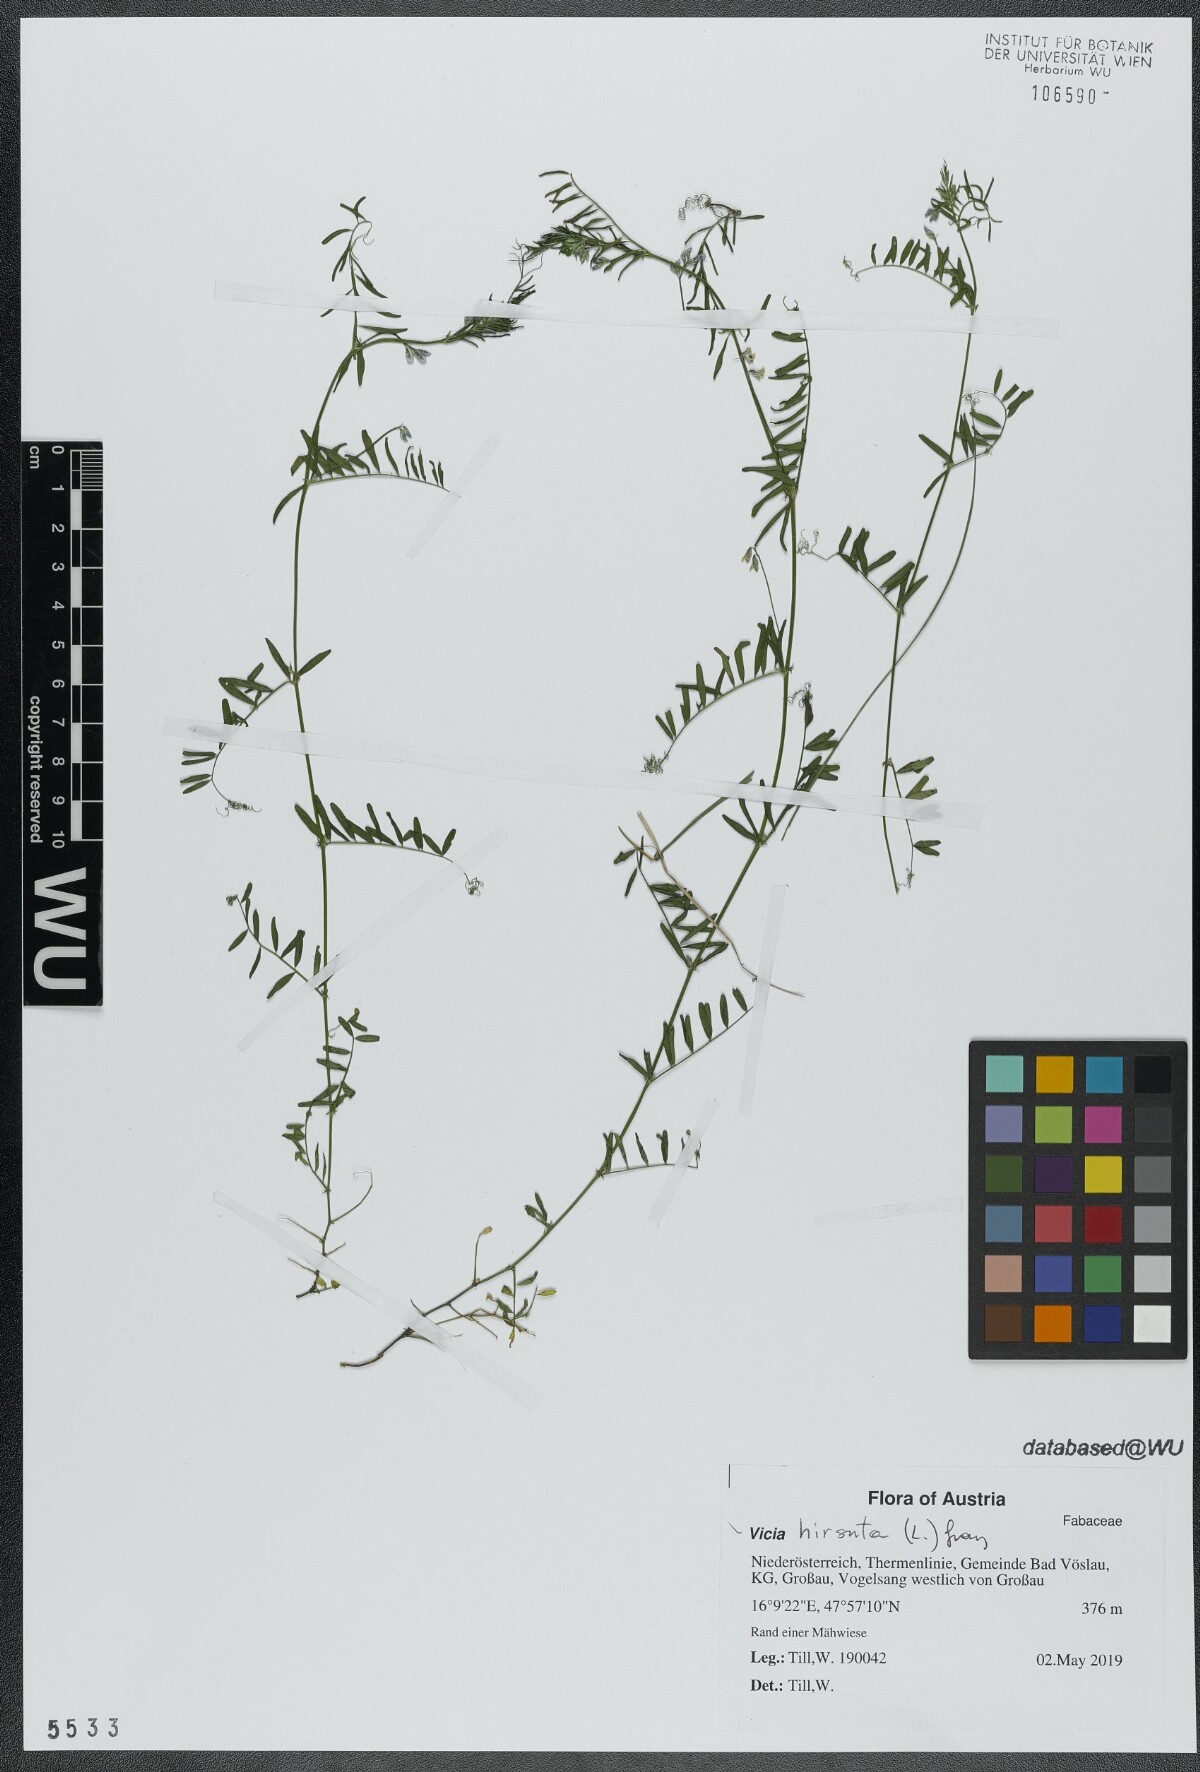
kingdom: Plantae
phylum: Tracheophyta
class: Magnoliopsida
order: Fabales
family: Fabaceae
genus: Vicia
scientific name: Vicia hirsuta
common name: Tiny vetch
